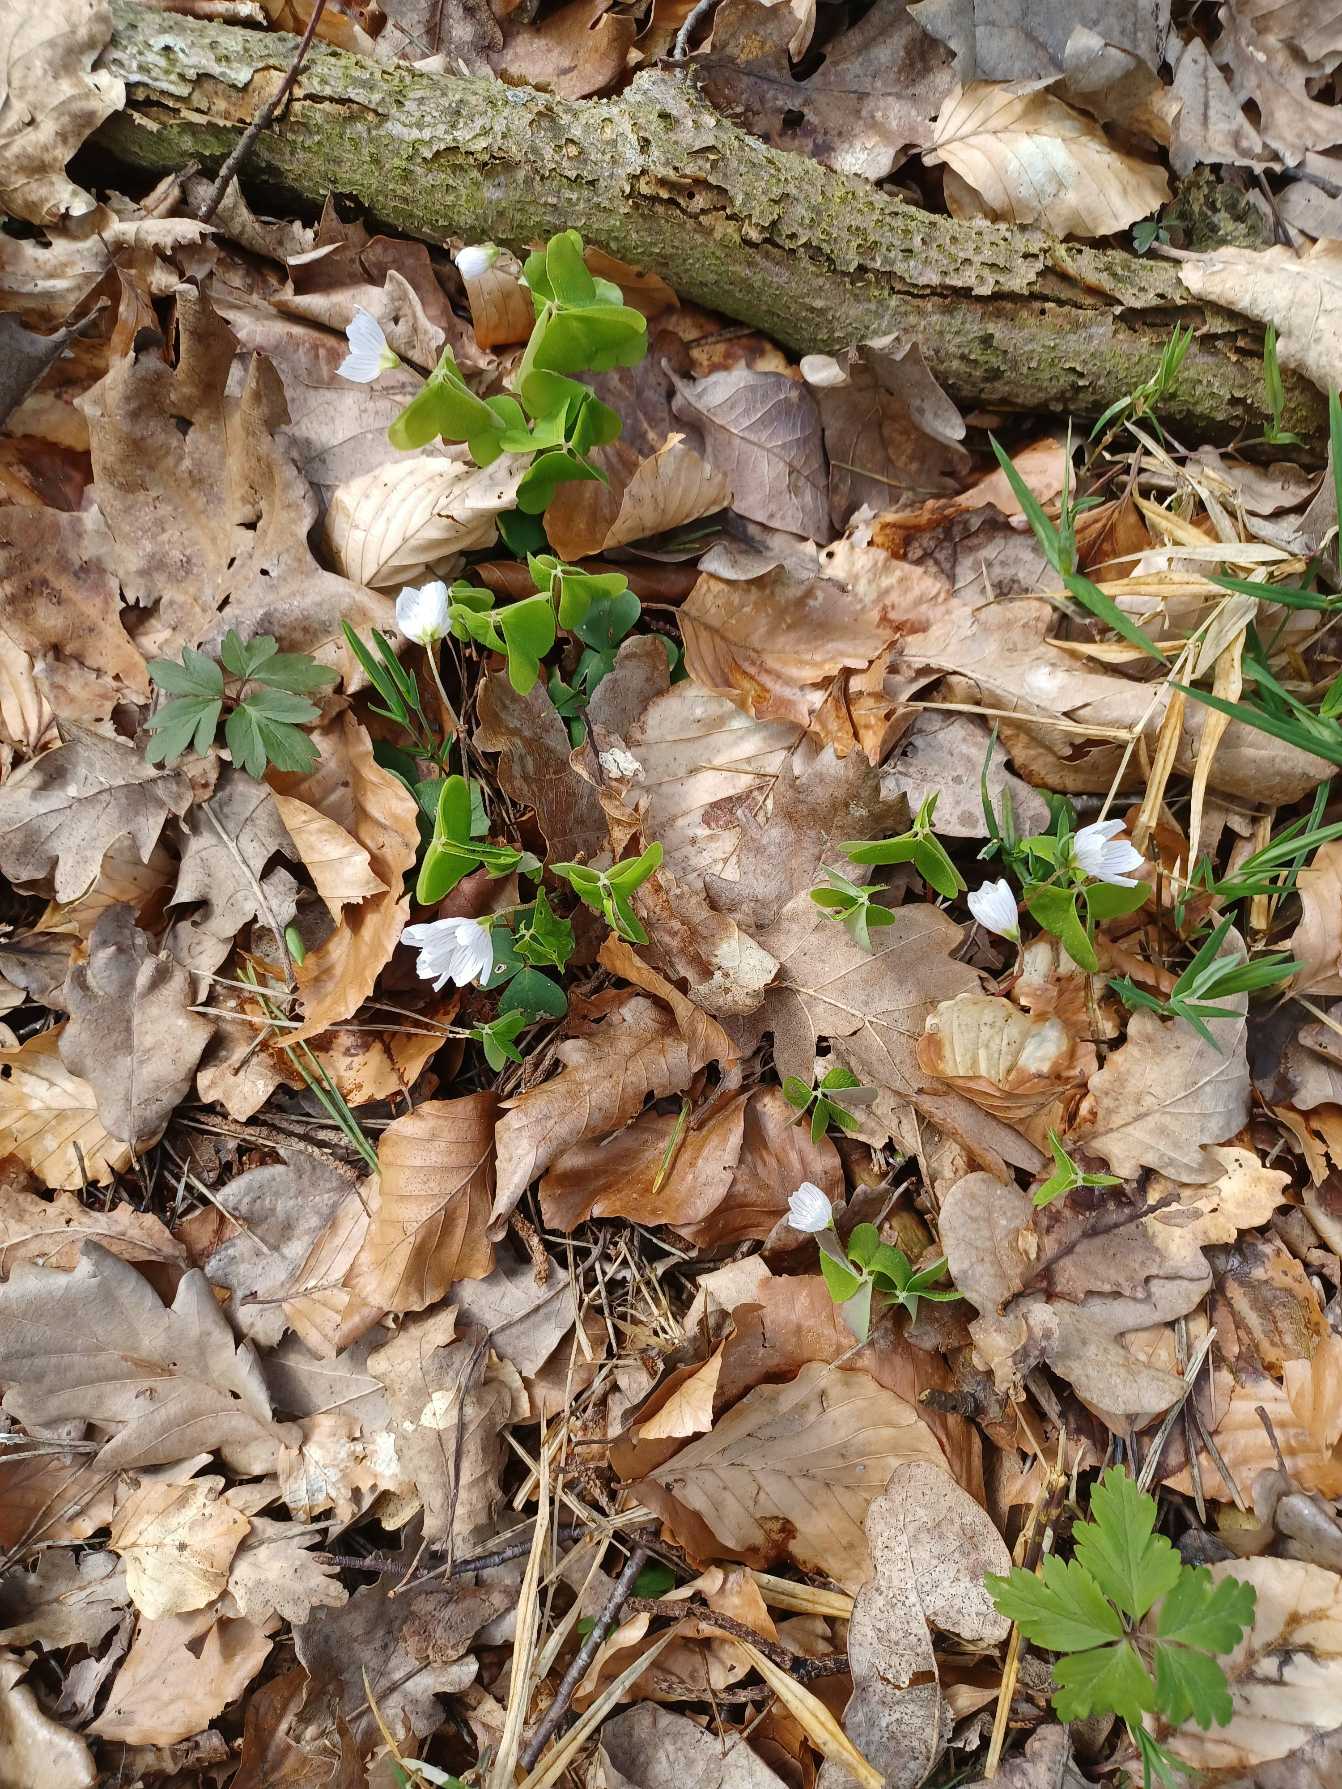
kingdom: Plantae
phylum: Tracheophyta
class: Magnoliopsida
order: Oxalidales
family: Oxalidaceae
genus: Oxalis
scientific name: Oxalis acetosella
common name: Skovsyre
